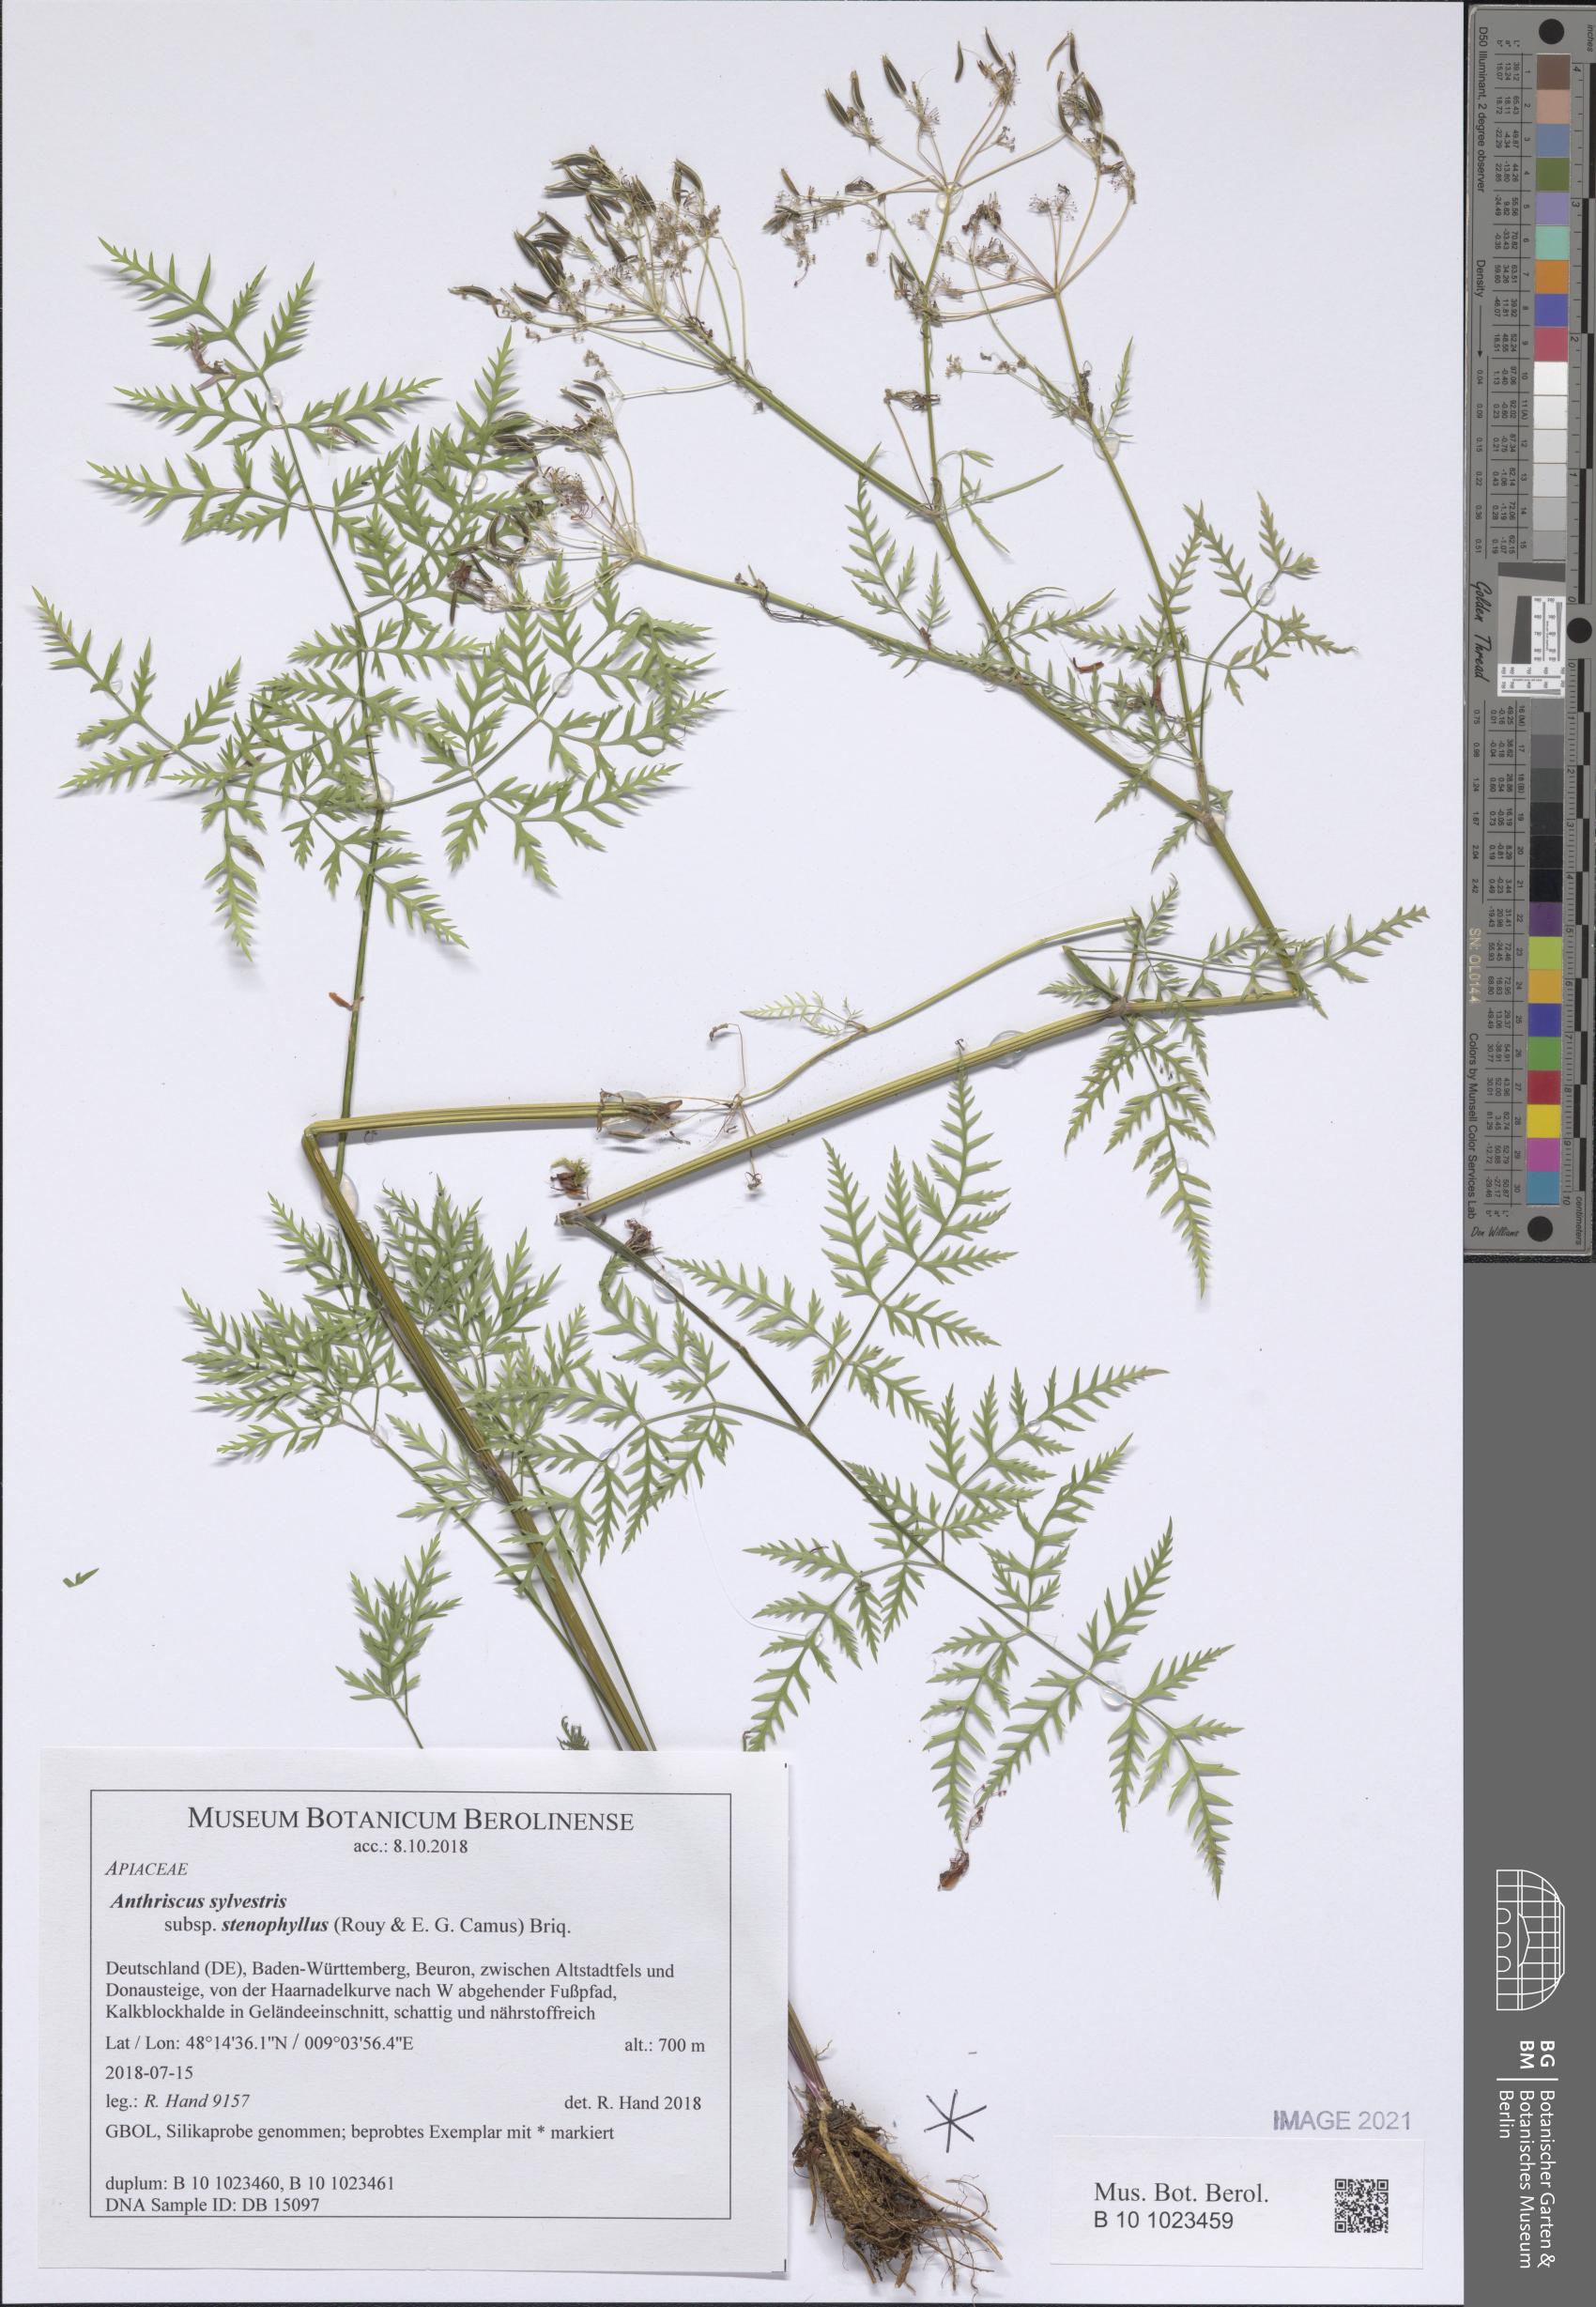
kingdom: Plantae
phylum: Tracheophyta
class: Magnoliopsida
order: Apiales
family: Apiaceae
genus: Anthriscus
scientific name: Anthriscus sylvestris
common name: Cow parsley
